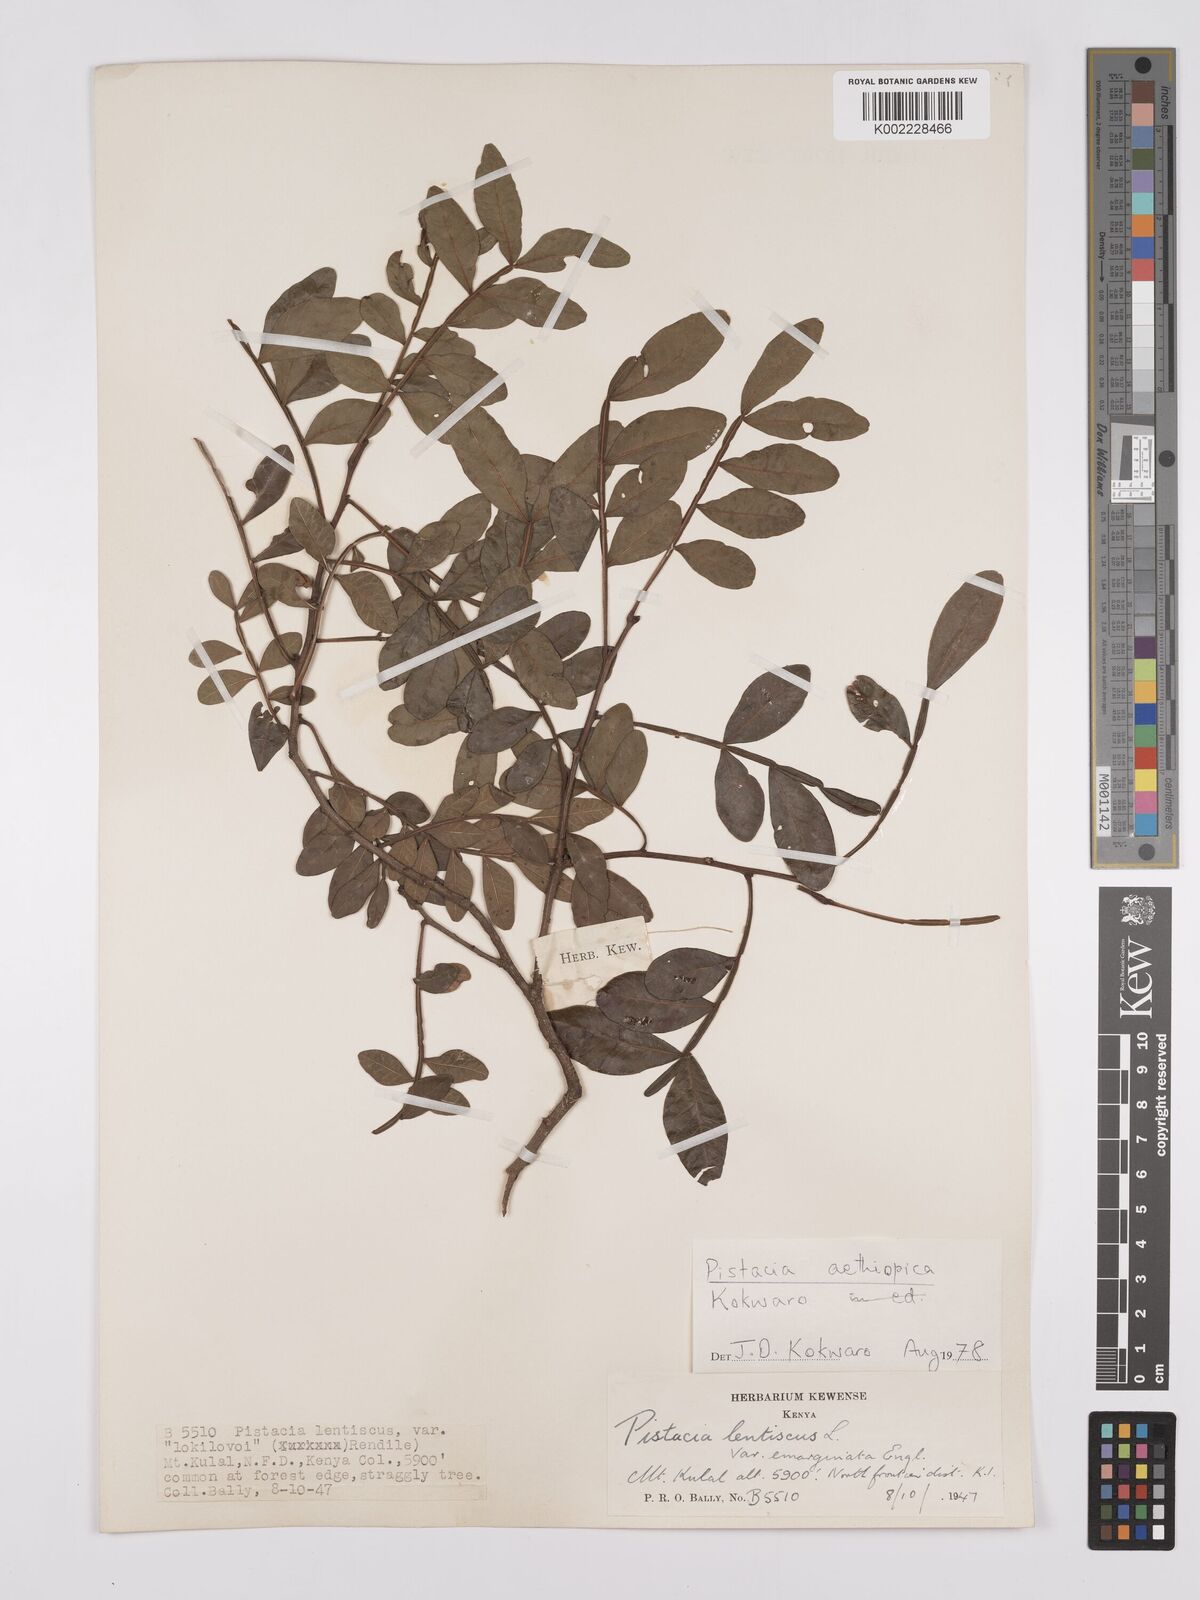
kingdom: Plantae
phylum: Tracheophyta
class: Magnoliopsida
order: Sapindales
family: Anacardiaceae
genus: Pistacia
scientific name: Pistacia lentiscus
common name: Lentisk
